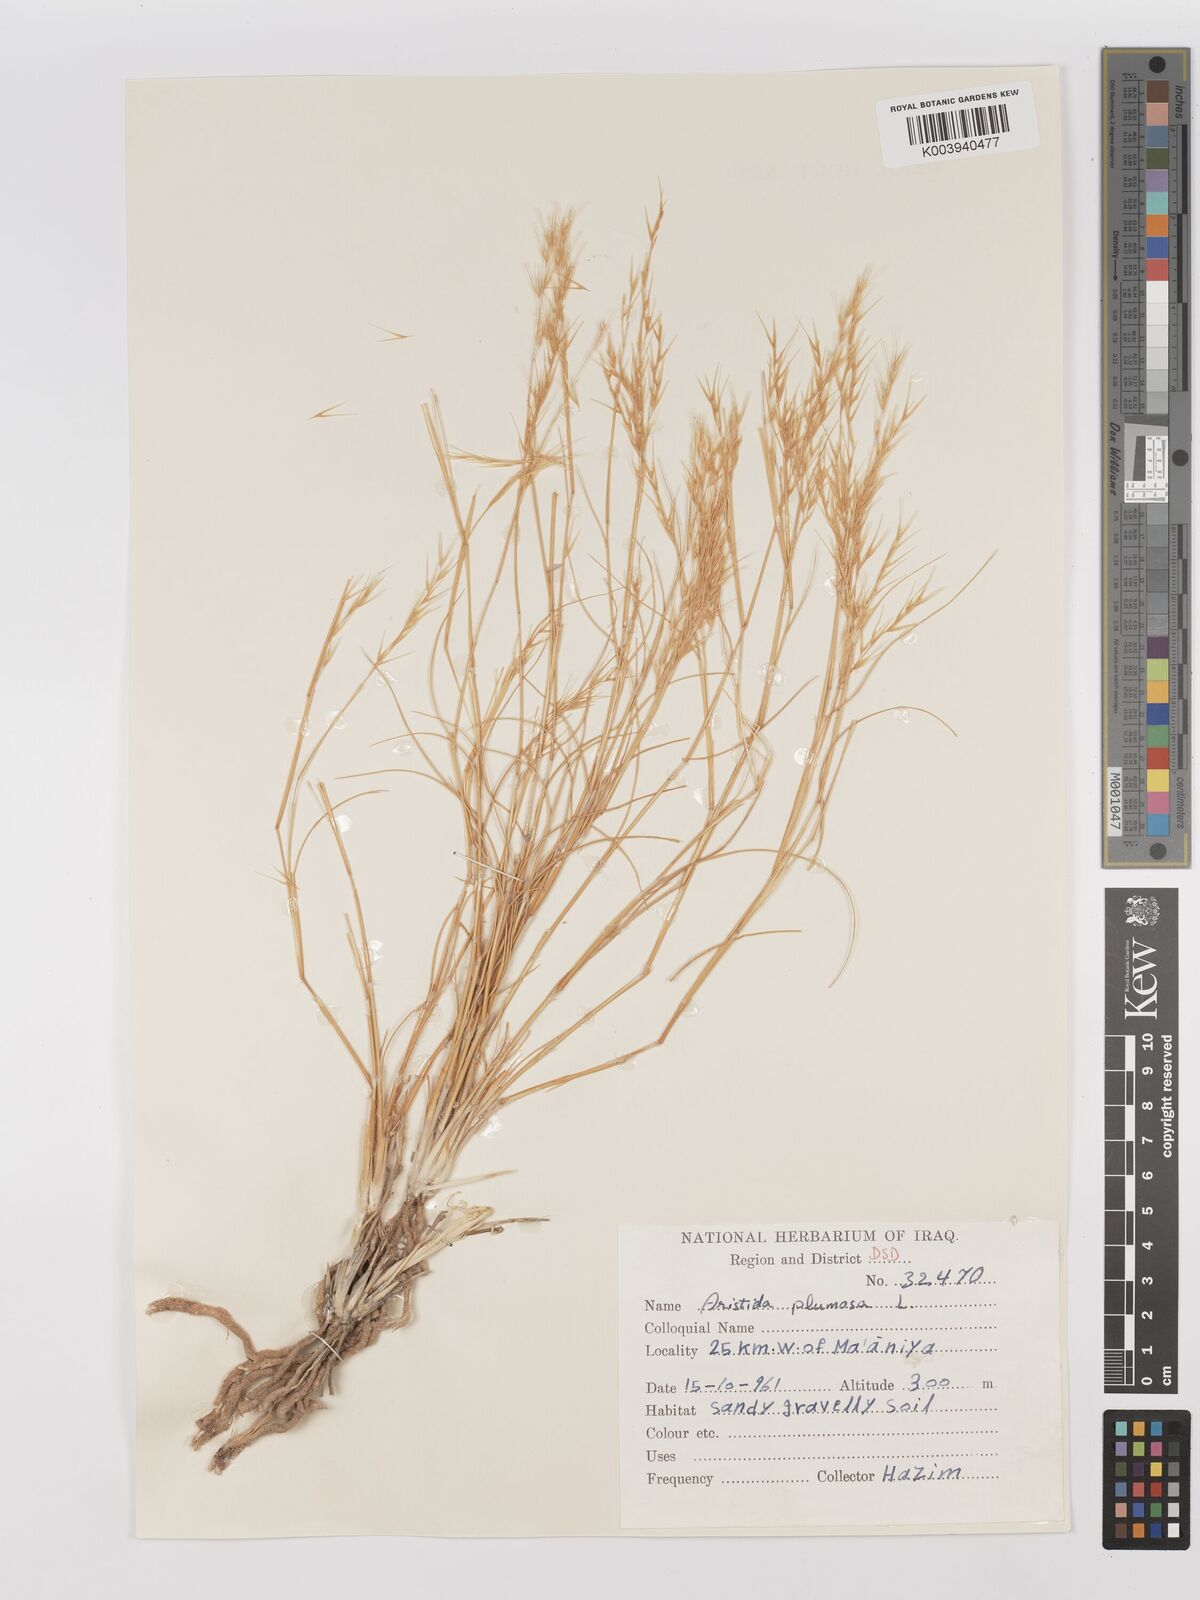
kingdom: Plantae
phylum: Tracheophyta
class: Liliopsida
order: Poales
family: Poaceae
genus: Stipagrostis
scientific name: Stipagrostis plumosa
